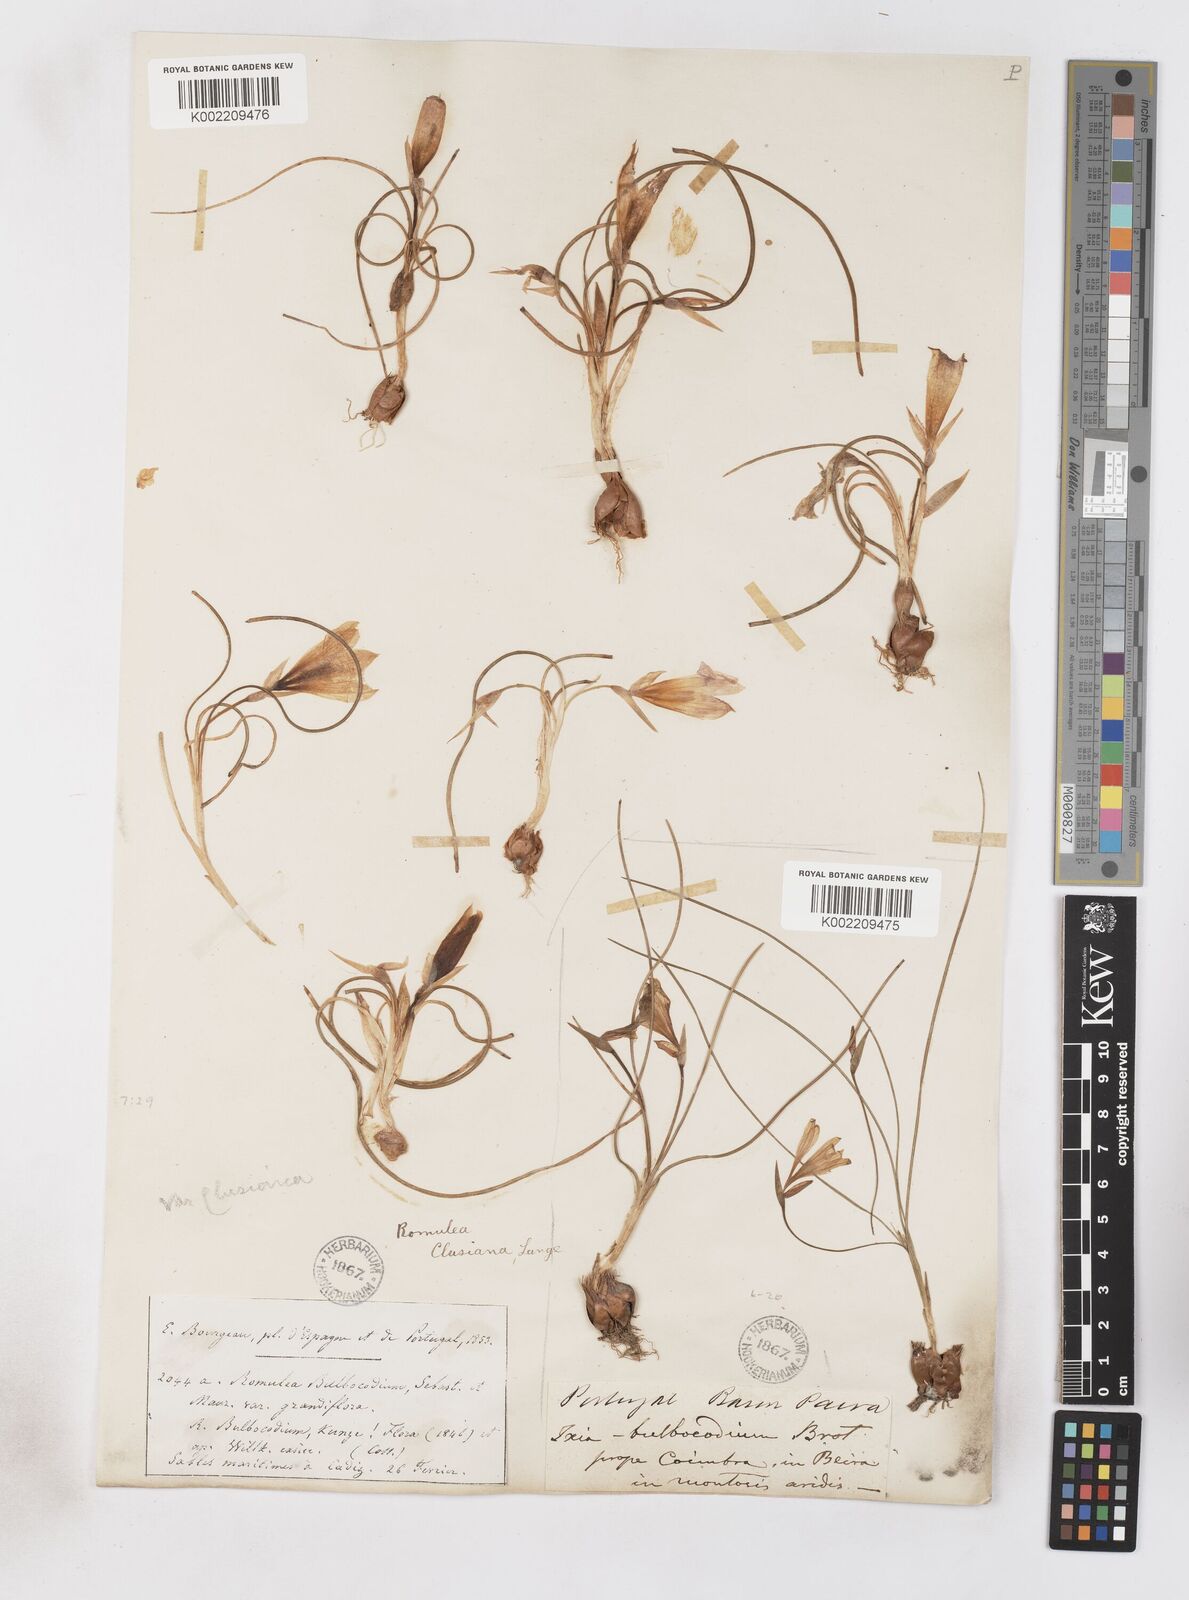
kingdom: Plantae
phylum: Tracheophyta
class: Liliopsida
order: Asparagales
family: Iridaceae
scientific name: Iridaceae
